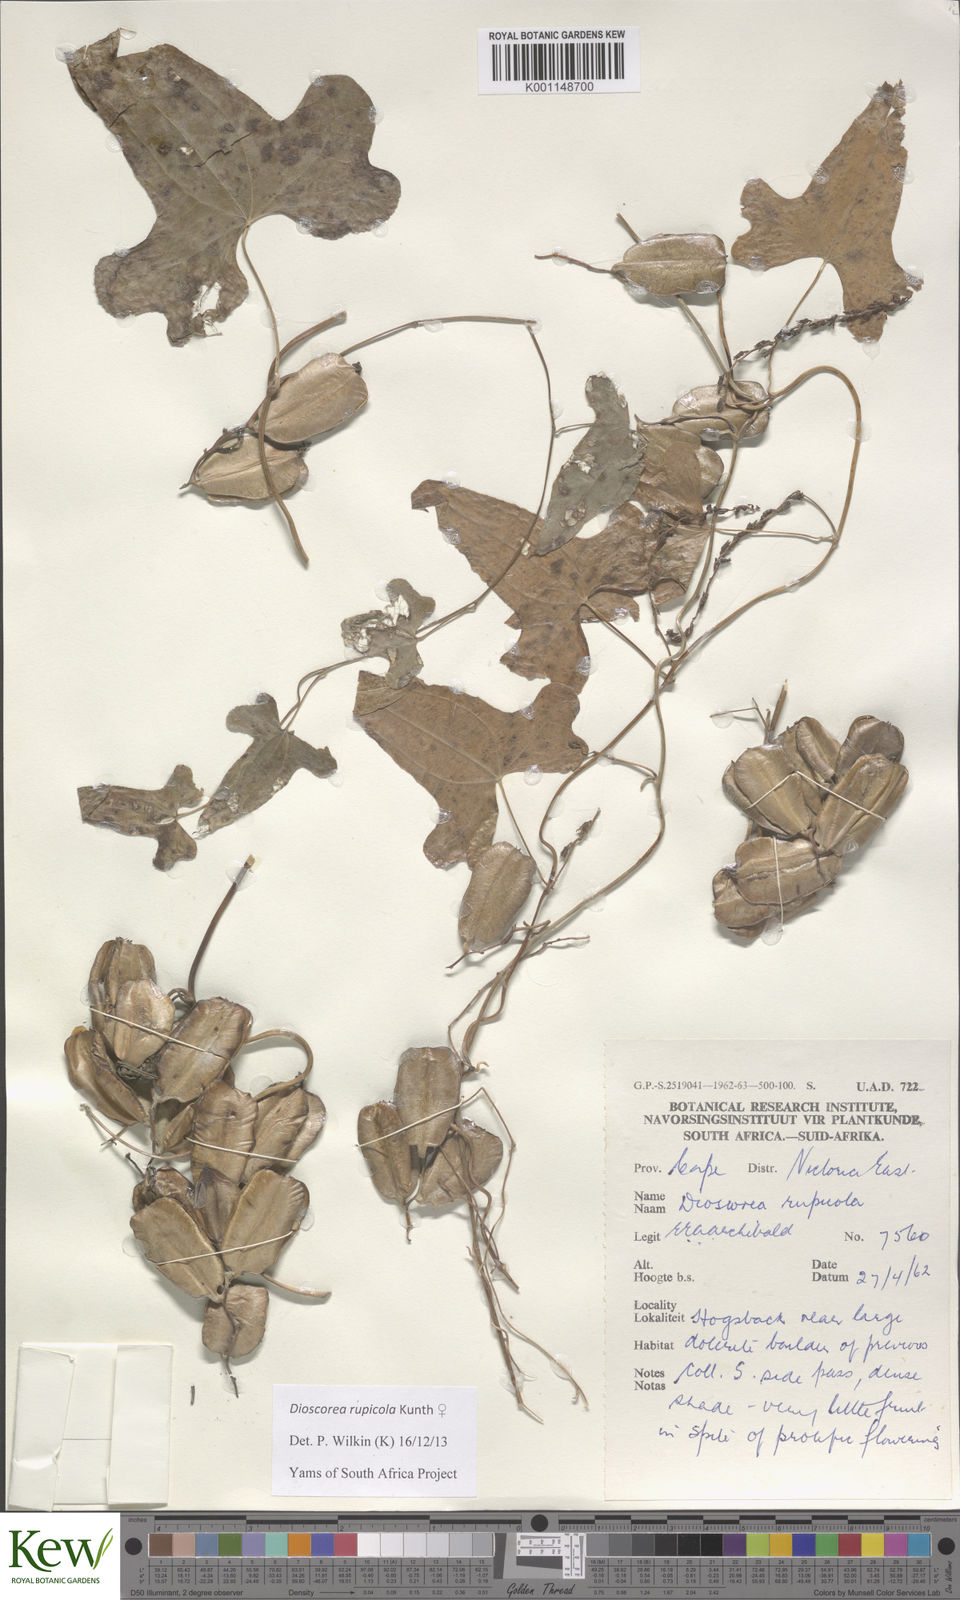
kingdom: Plantae
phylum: Tracheophyta
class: Liliopsida
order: Dioscoreales
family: Dioscoreaceae
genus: Dioscorea
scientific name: Dioscorea rupicola
